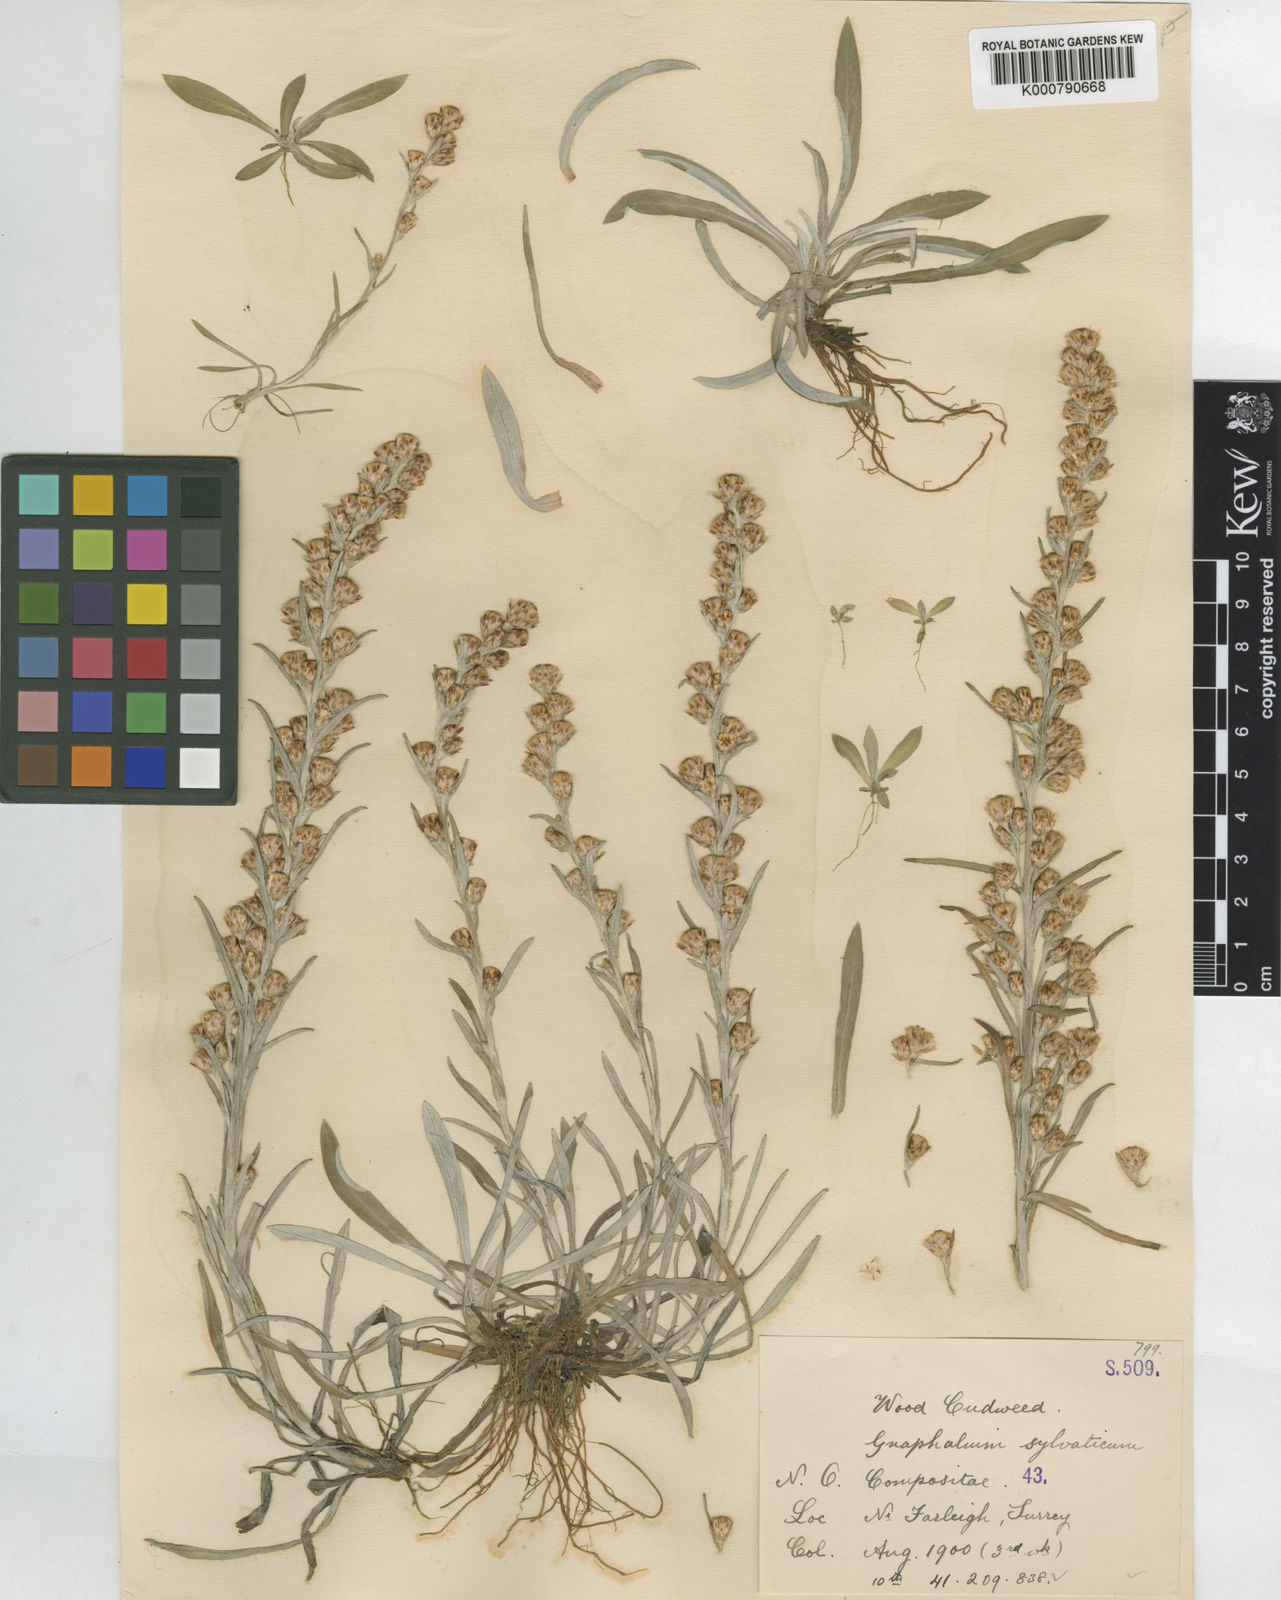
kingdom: Plantae
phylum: Tracheophyta
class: Magnoliopsida
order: Asterales
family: Asteraceae
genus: Omalotheca
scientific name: Omalotheca sylvatica
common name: Heath cudweed
